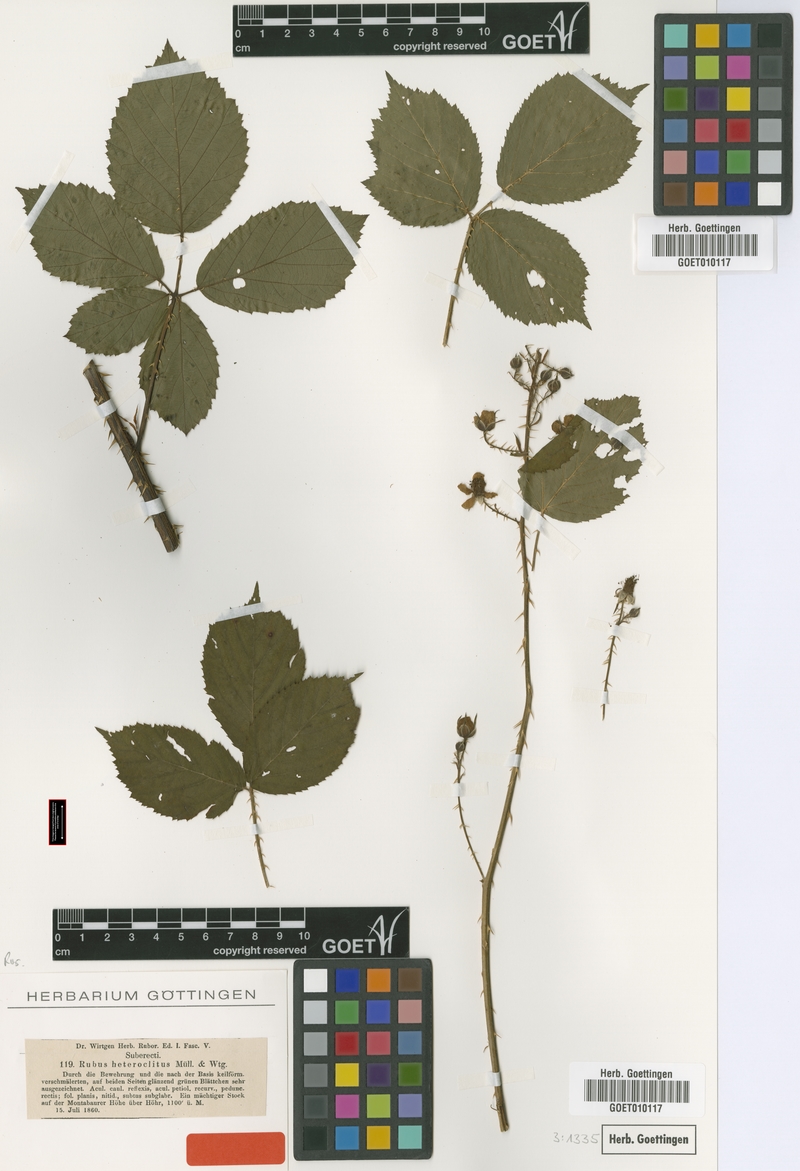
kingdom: Plantae
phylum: Tracheophyta
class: Magnoliopsida
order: Rosales
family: Rosaceae
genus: Rubus
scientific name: Rubus senticosus
